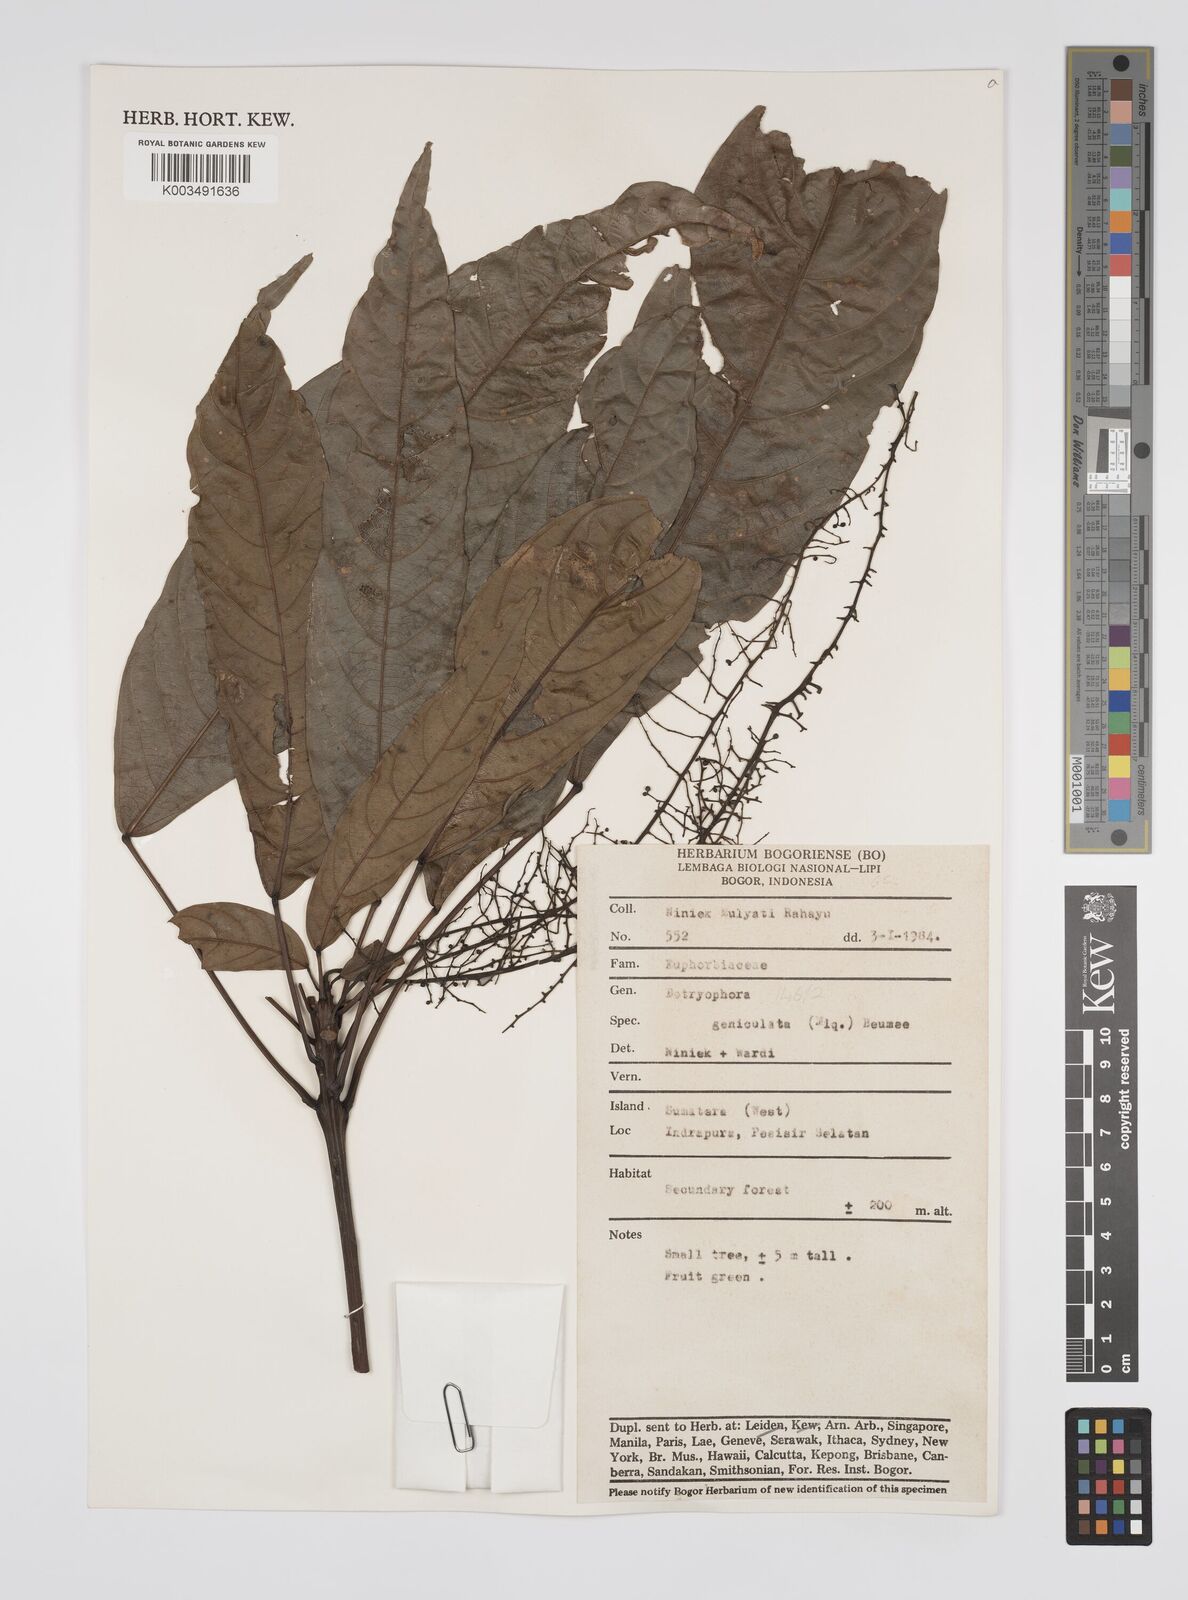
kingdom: Plantae
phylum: Tracheophyta
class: Magnoliopsida
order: Malpighiales
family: Euphorbiaceae
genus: Botryophora
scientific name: Botryophora geniculata
